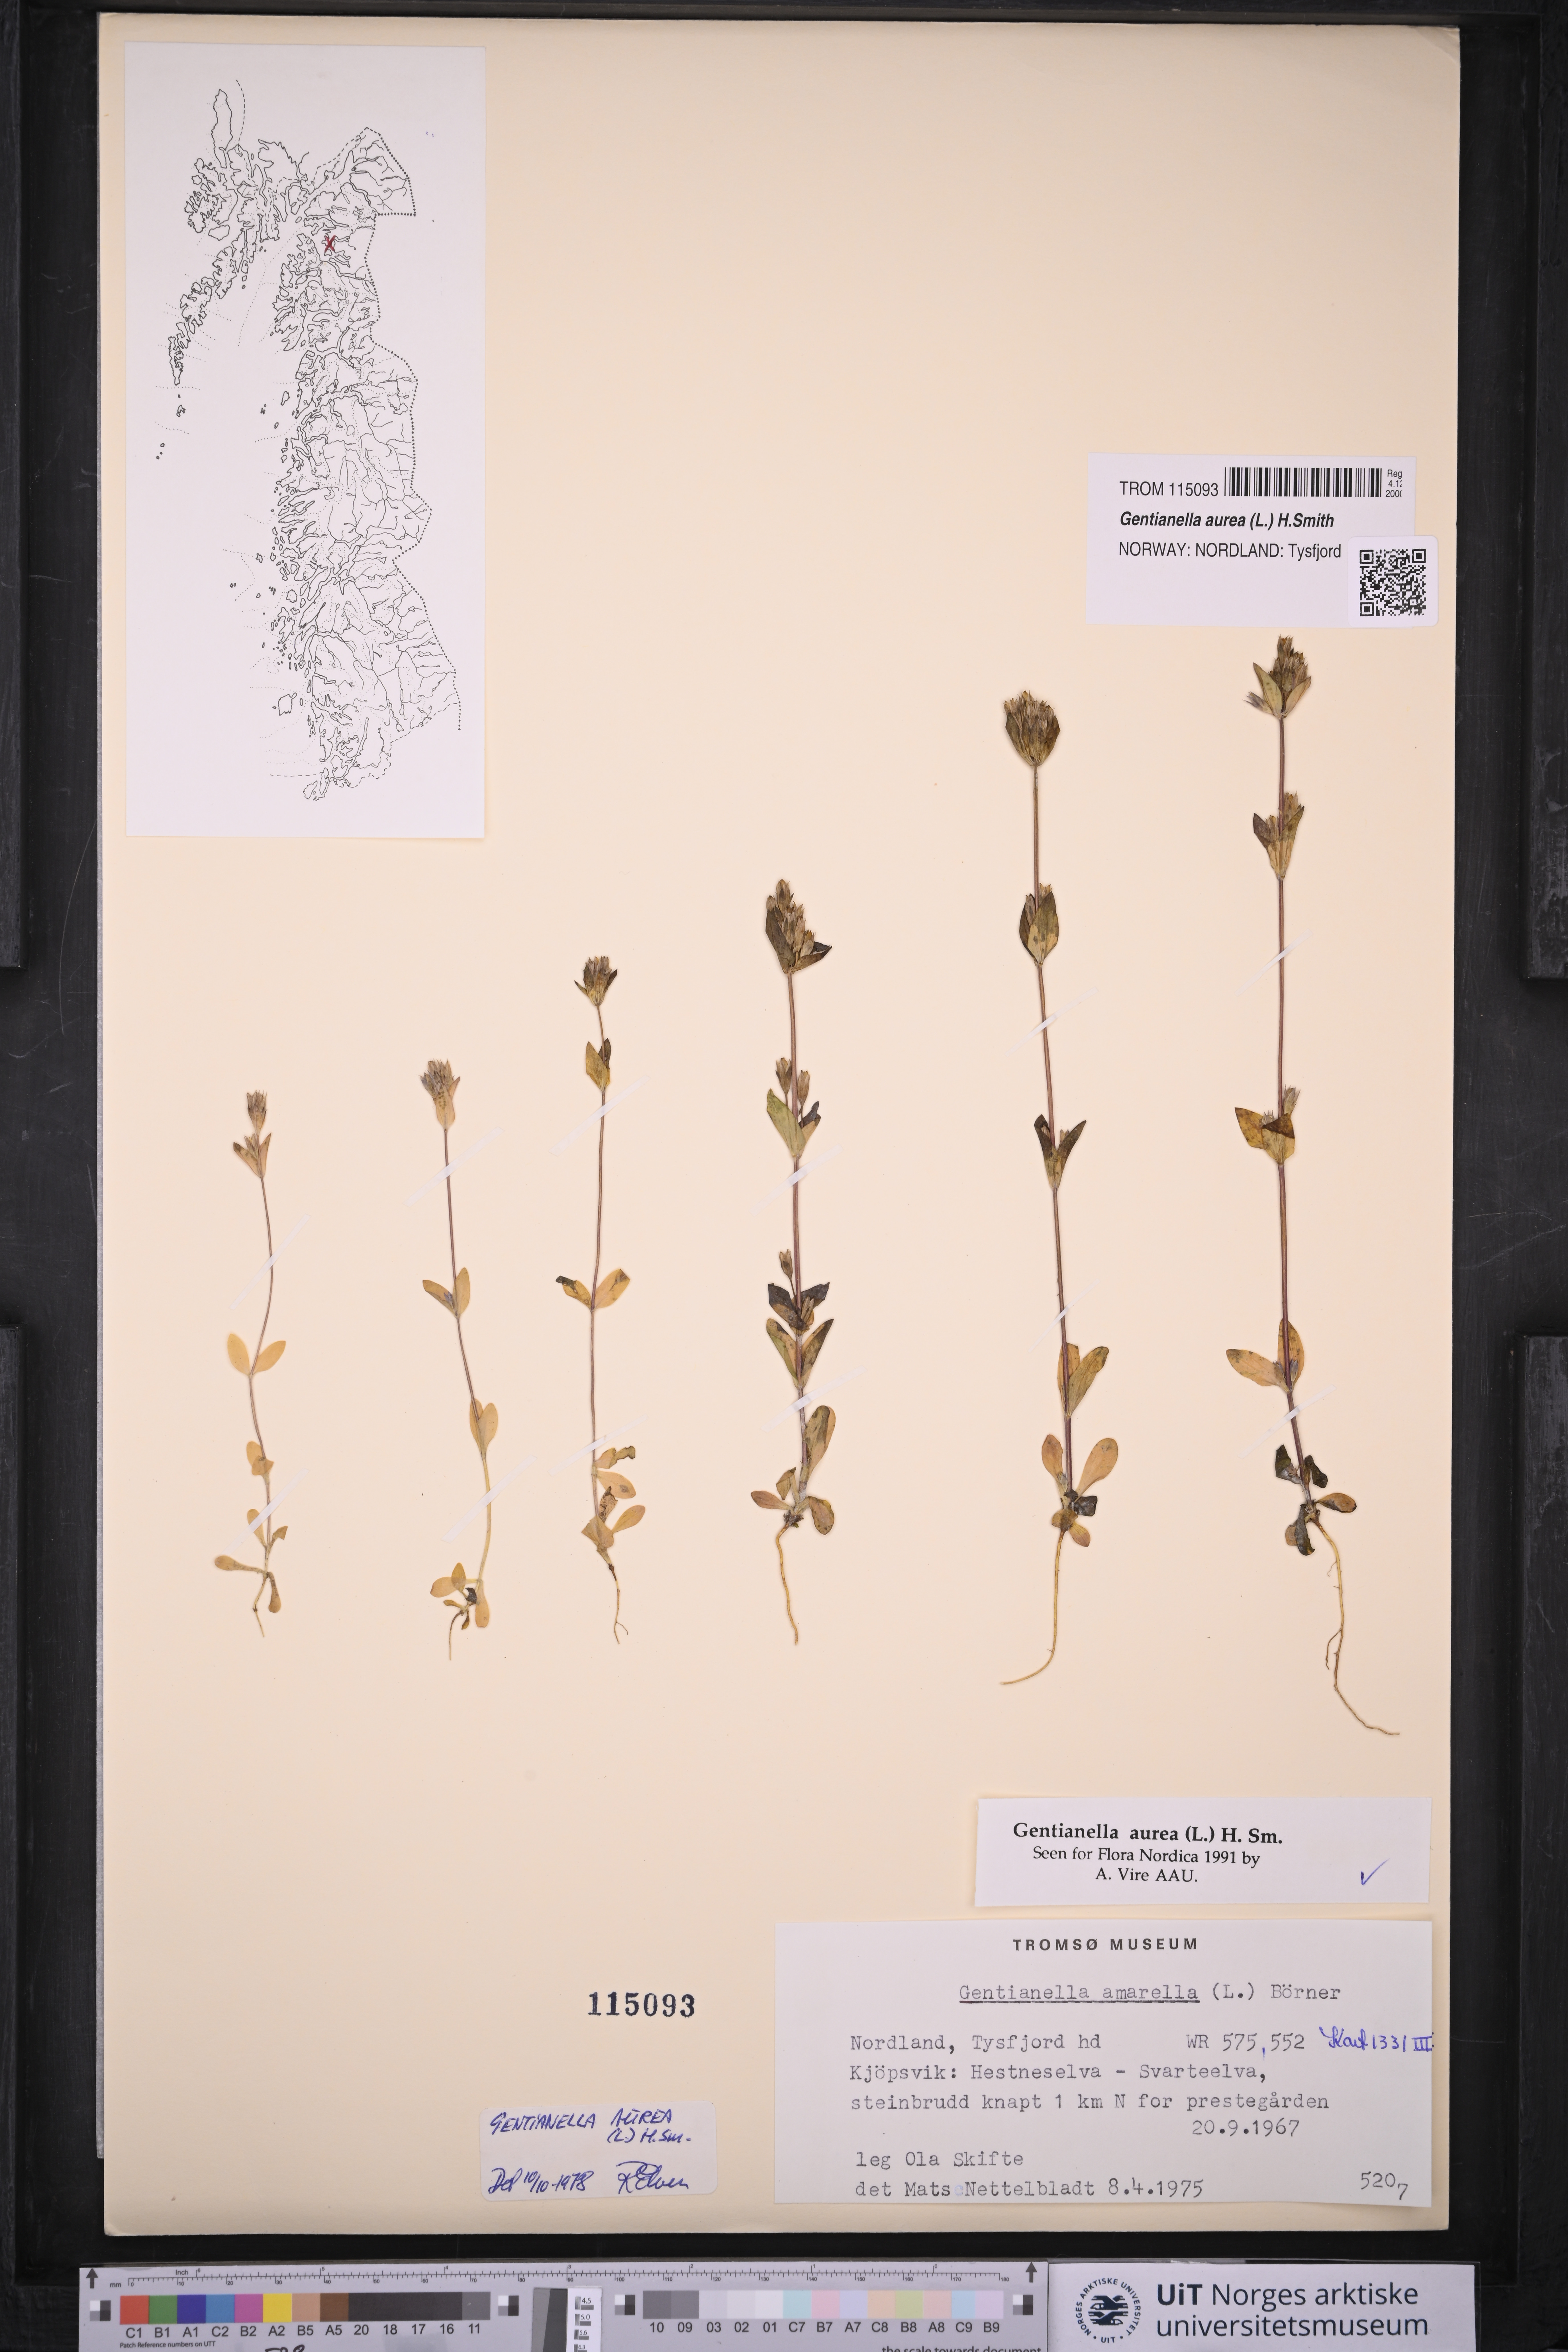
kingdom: Plantae
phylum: Tracheophyta
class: Magnoliopsida
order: Gentianales
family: Gentianaceae
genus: Gentianella
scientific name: Gentianella aurea
